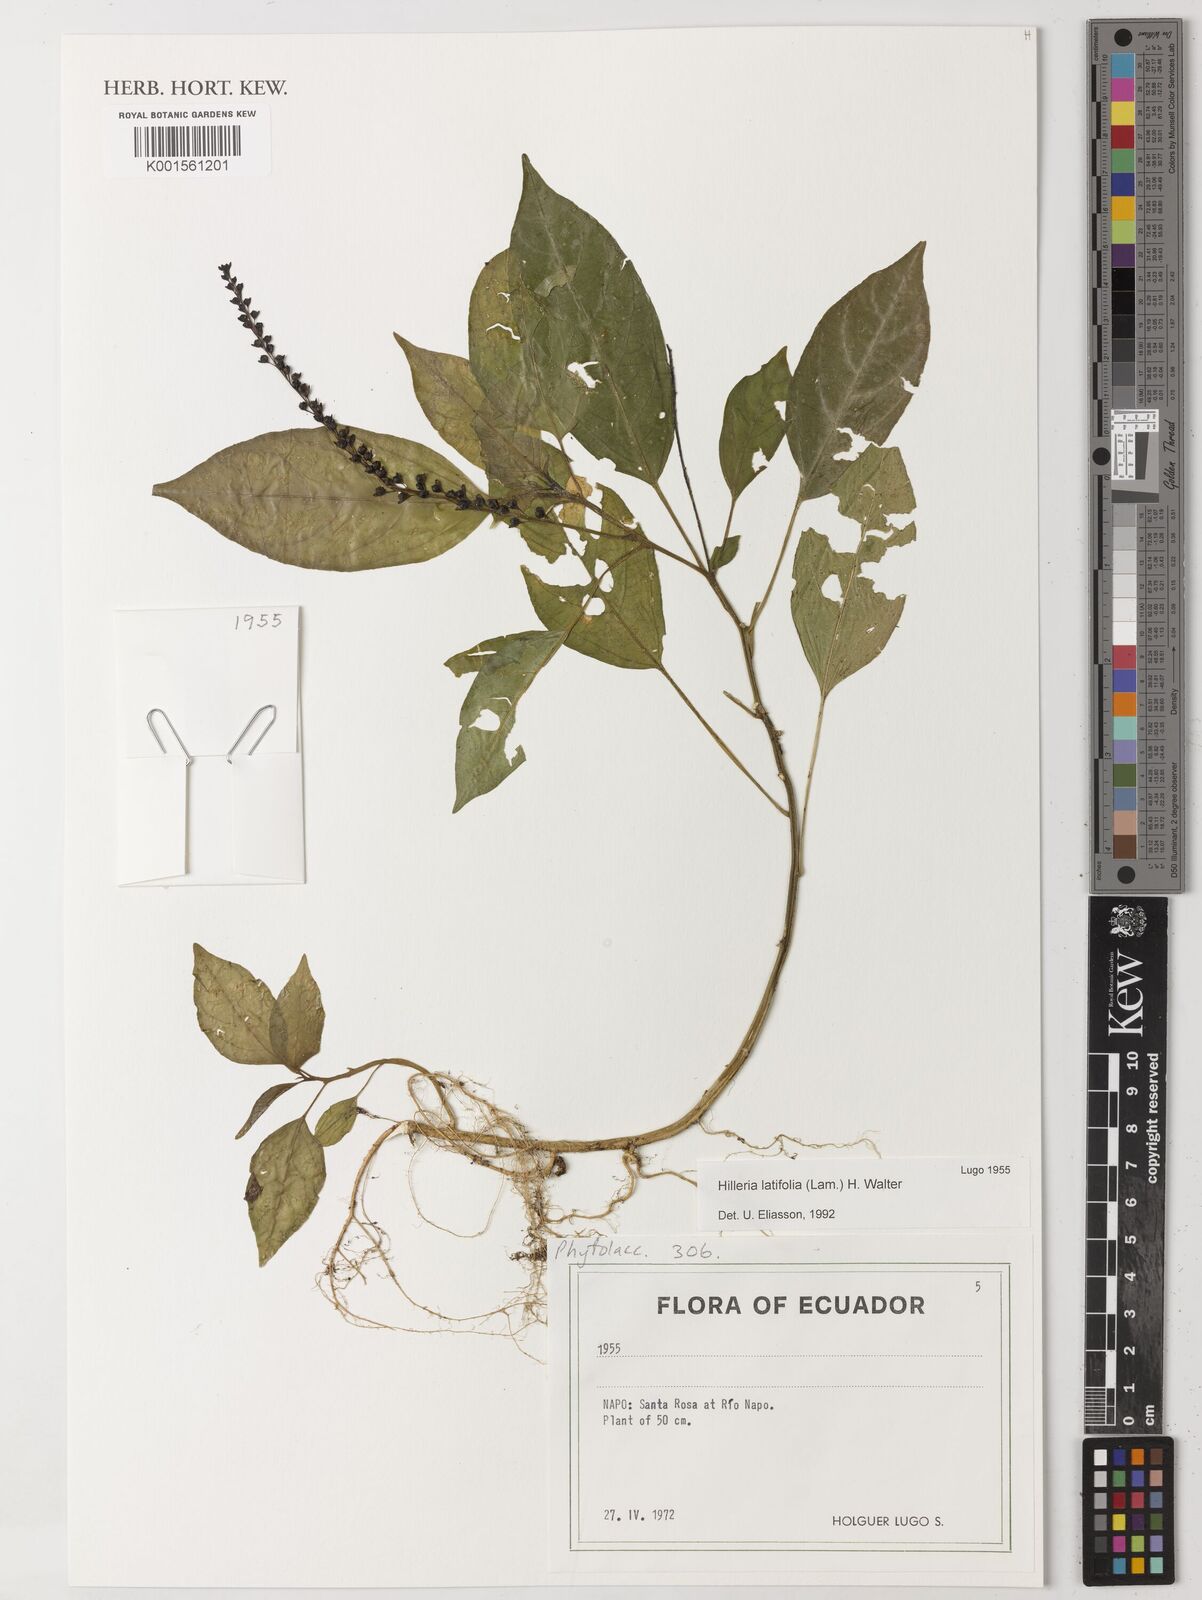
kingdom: Plantae
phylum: Tracheophyta
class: Magnoliopsida
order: Caryophyllales
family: Phytolaccaceae
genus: Hilleria
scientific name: Hilleria latifolia
